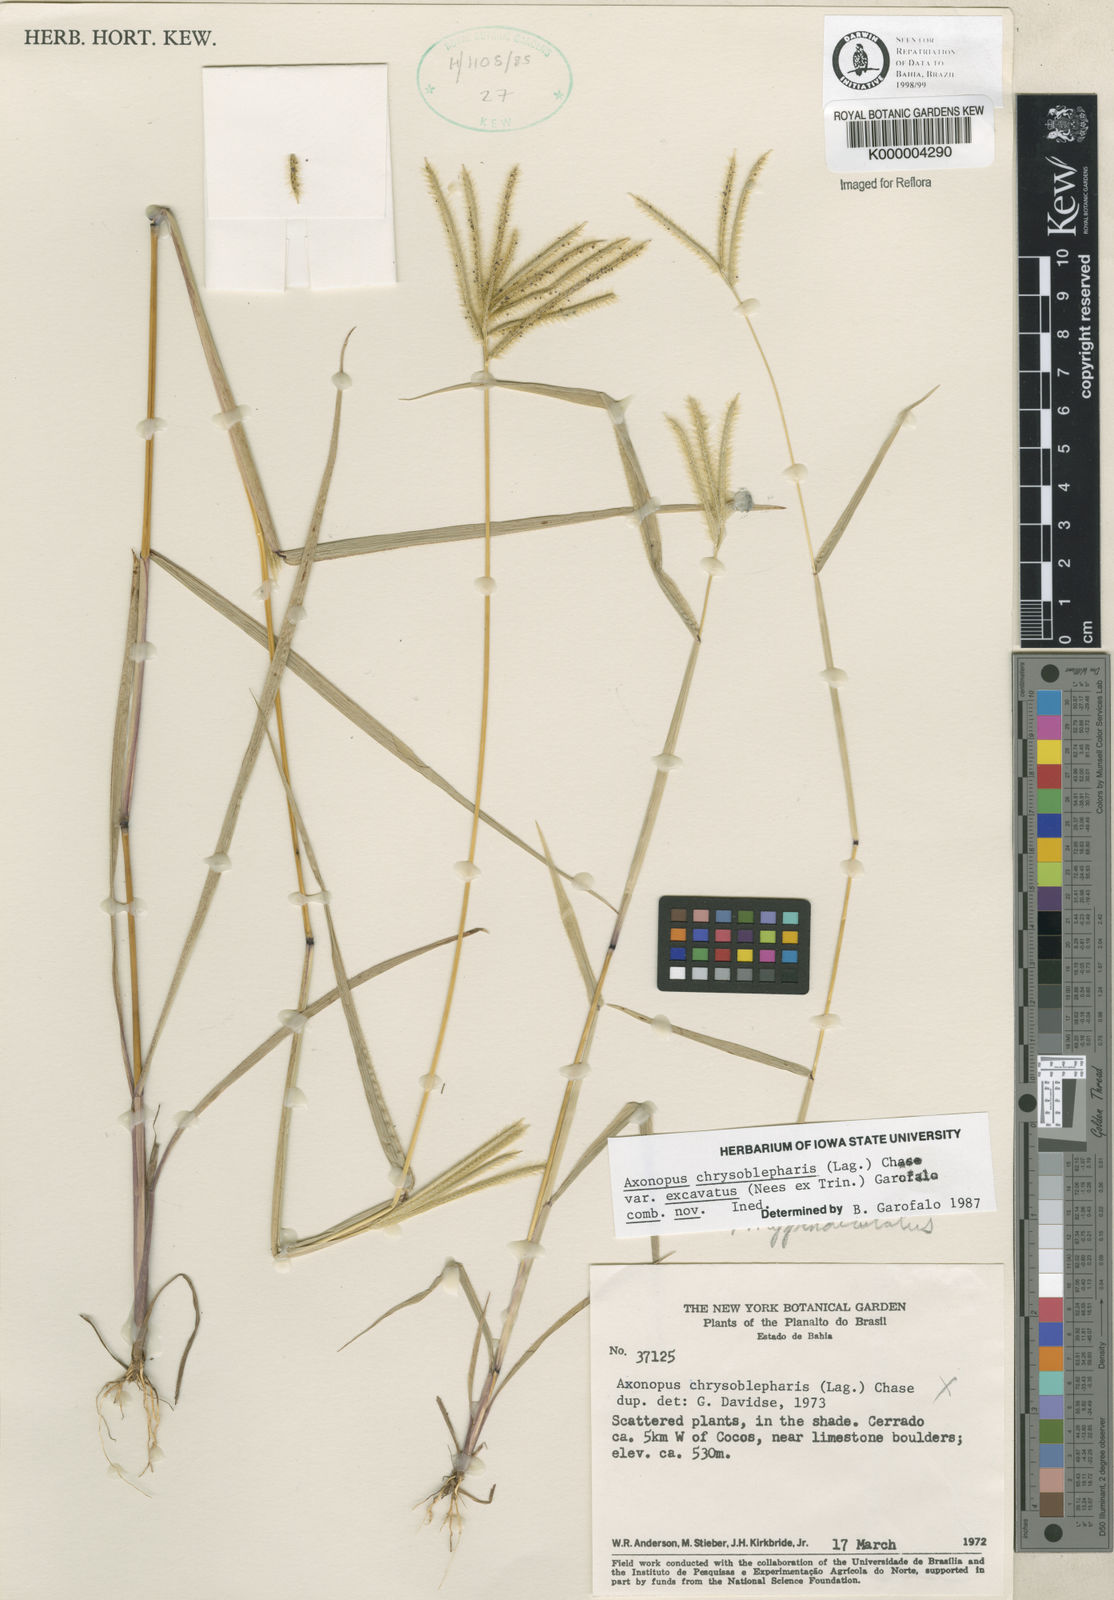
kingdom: Plantae
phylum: Tracheophyta
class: Liliopsida
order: Poales
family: Poaceae
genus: Axonopus
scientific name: Axonopus chrysoblepharis
